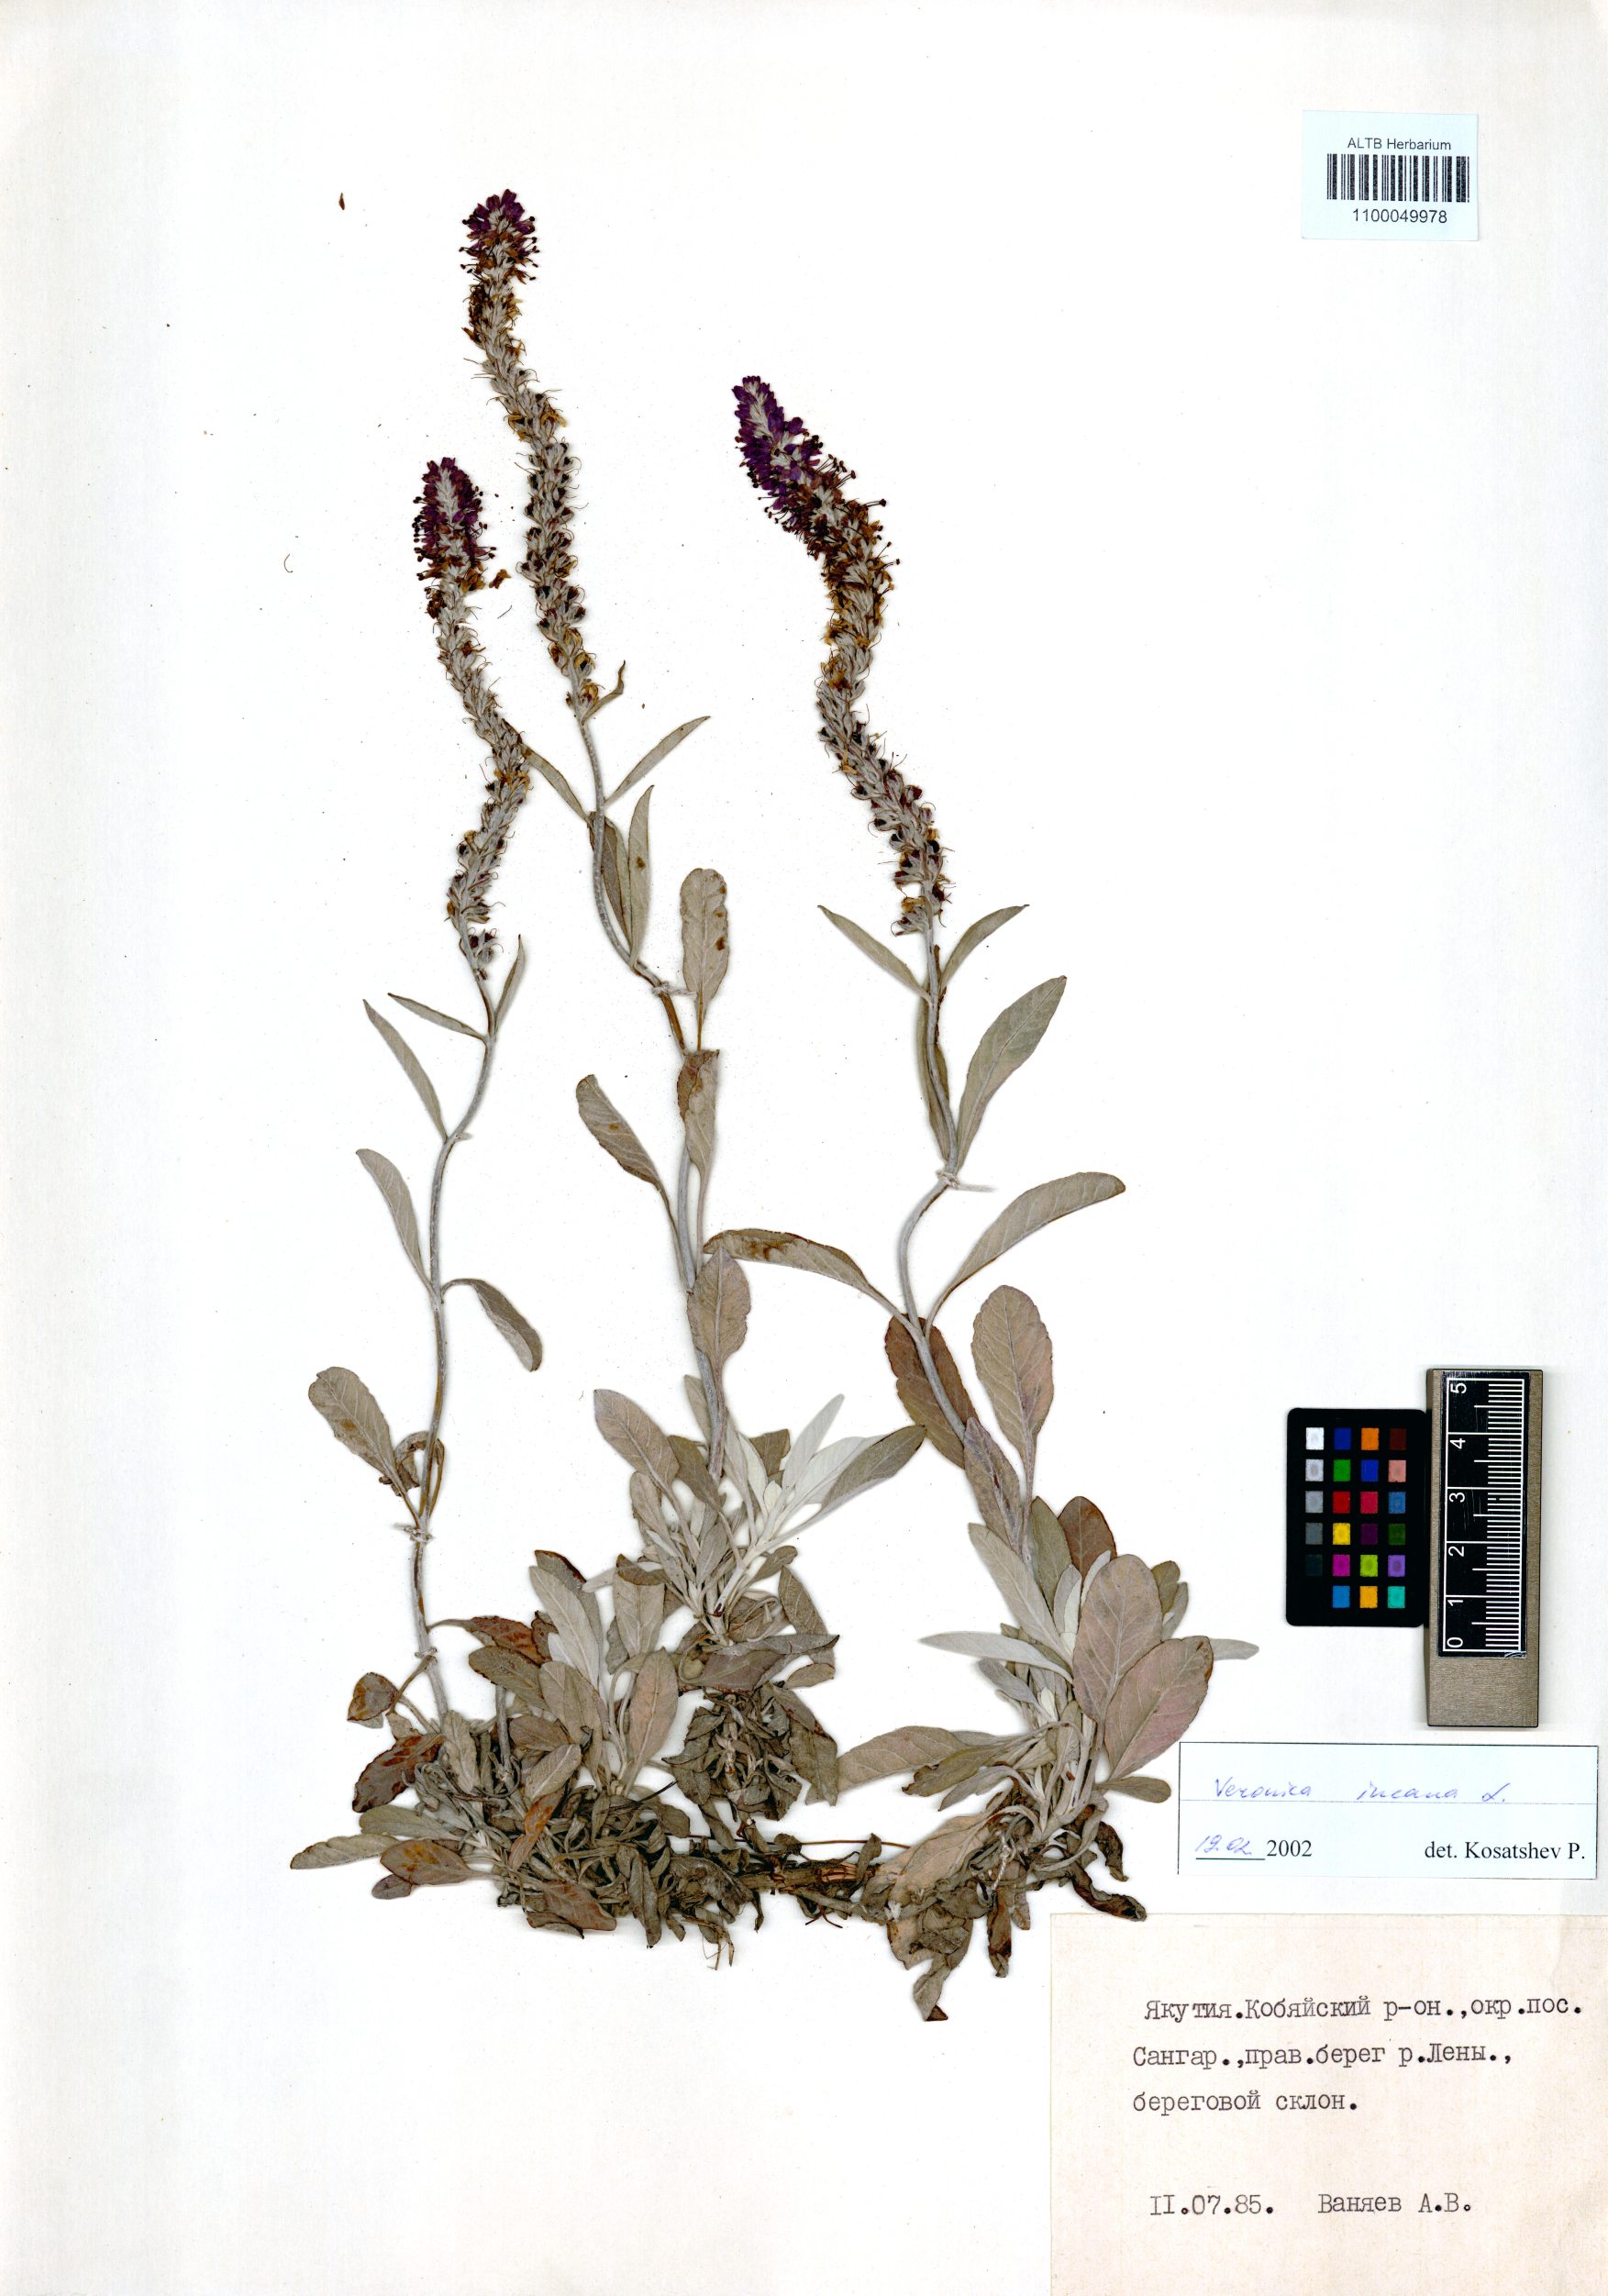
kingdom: Plantae
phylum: Tracheophyta
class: Magnoliopsida
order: Lamiales
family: Plantaginaceae
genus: Veronica
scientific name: Veronica incana
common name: Silver speedwell
